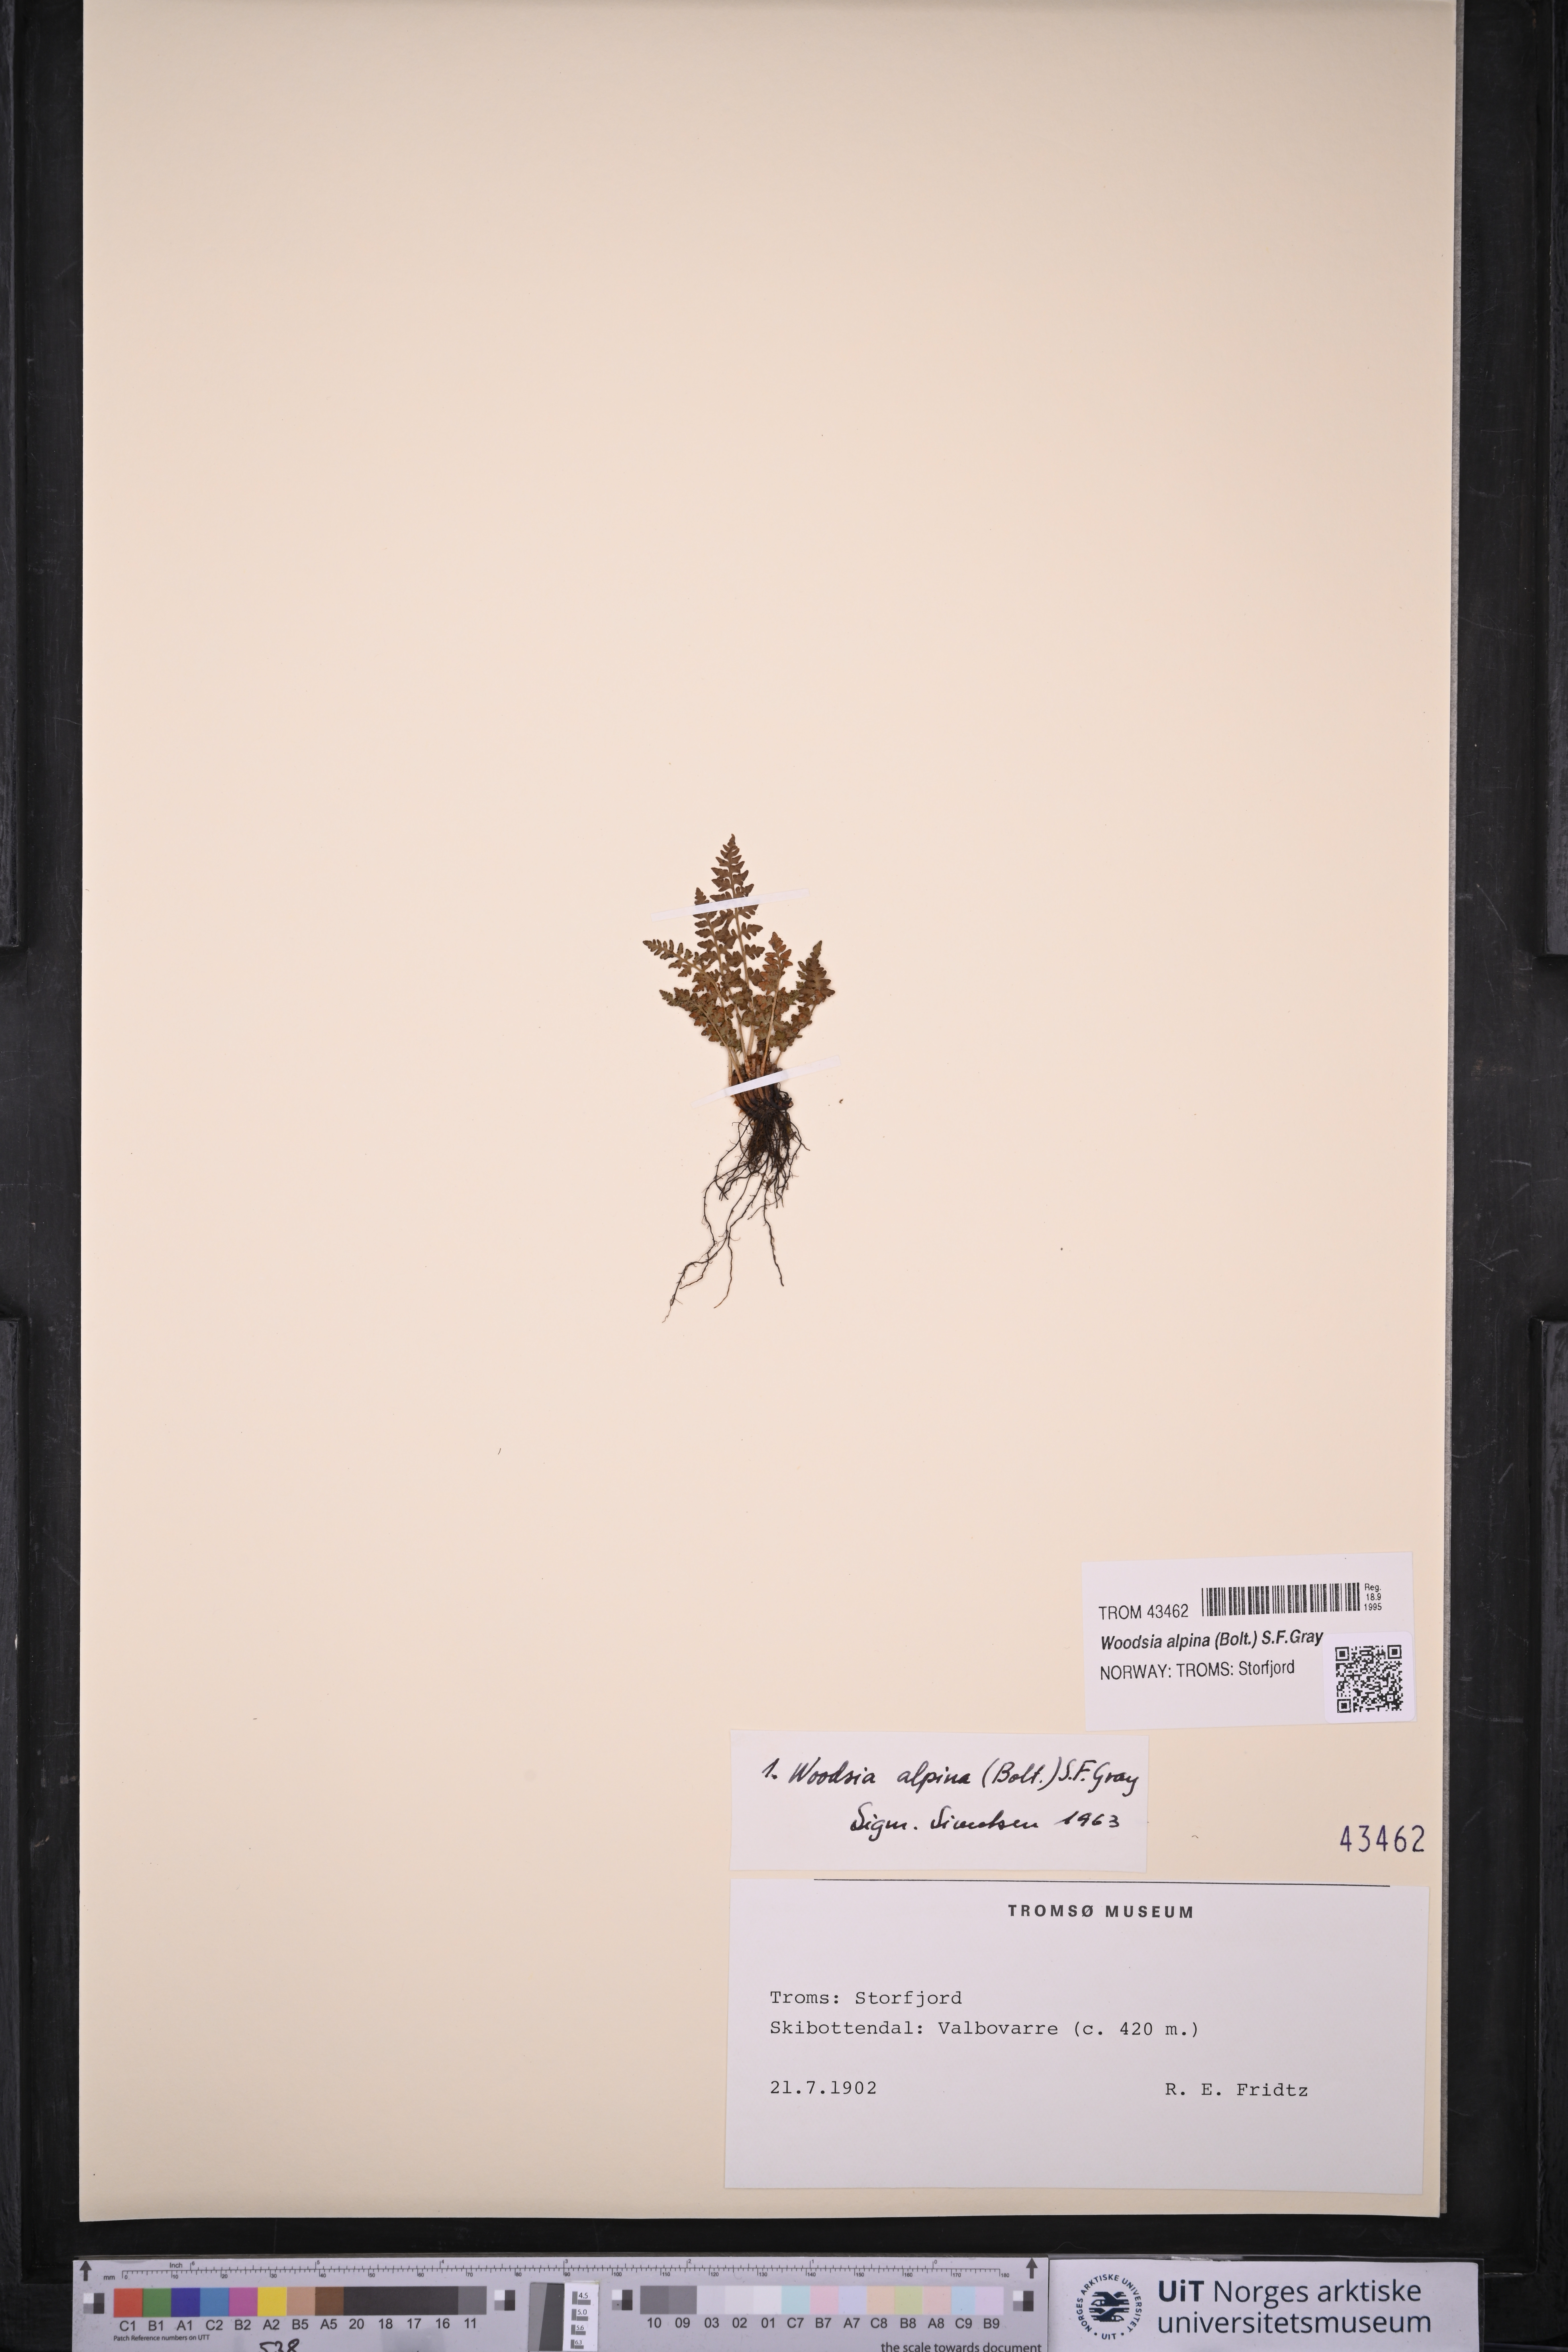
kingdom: Plantae
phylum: Tracheophyta
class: Polypodiopsida
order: Polypodiales
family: Woodsiaceae
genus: Woodsia
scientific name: Woodsia alpina
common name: Alpine woodsia
